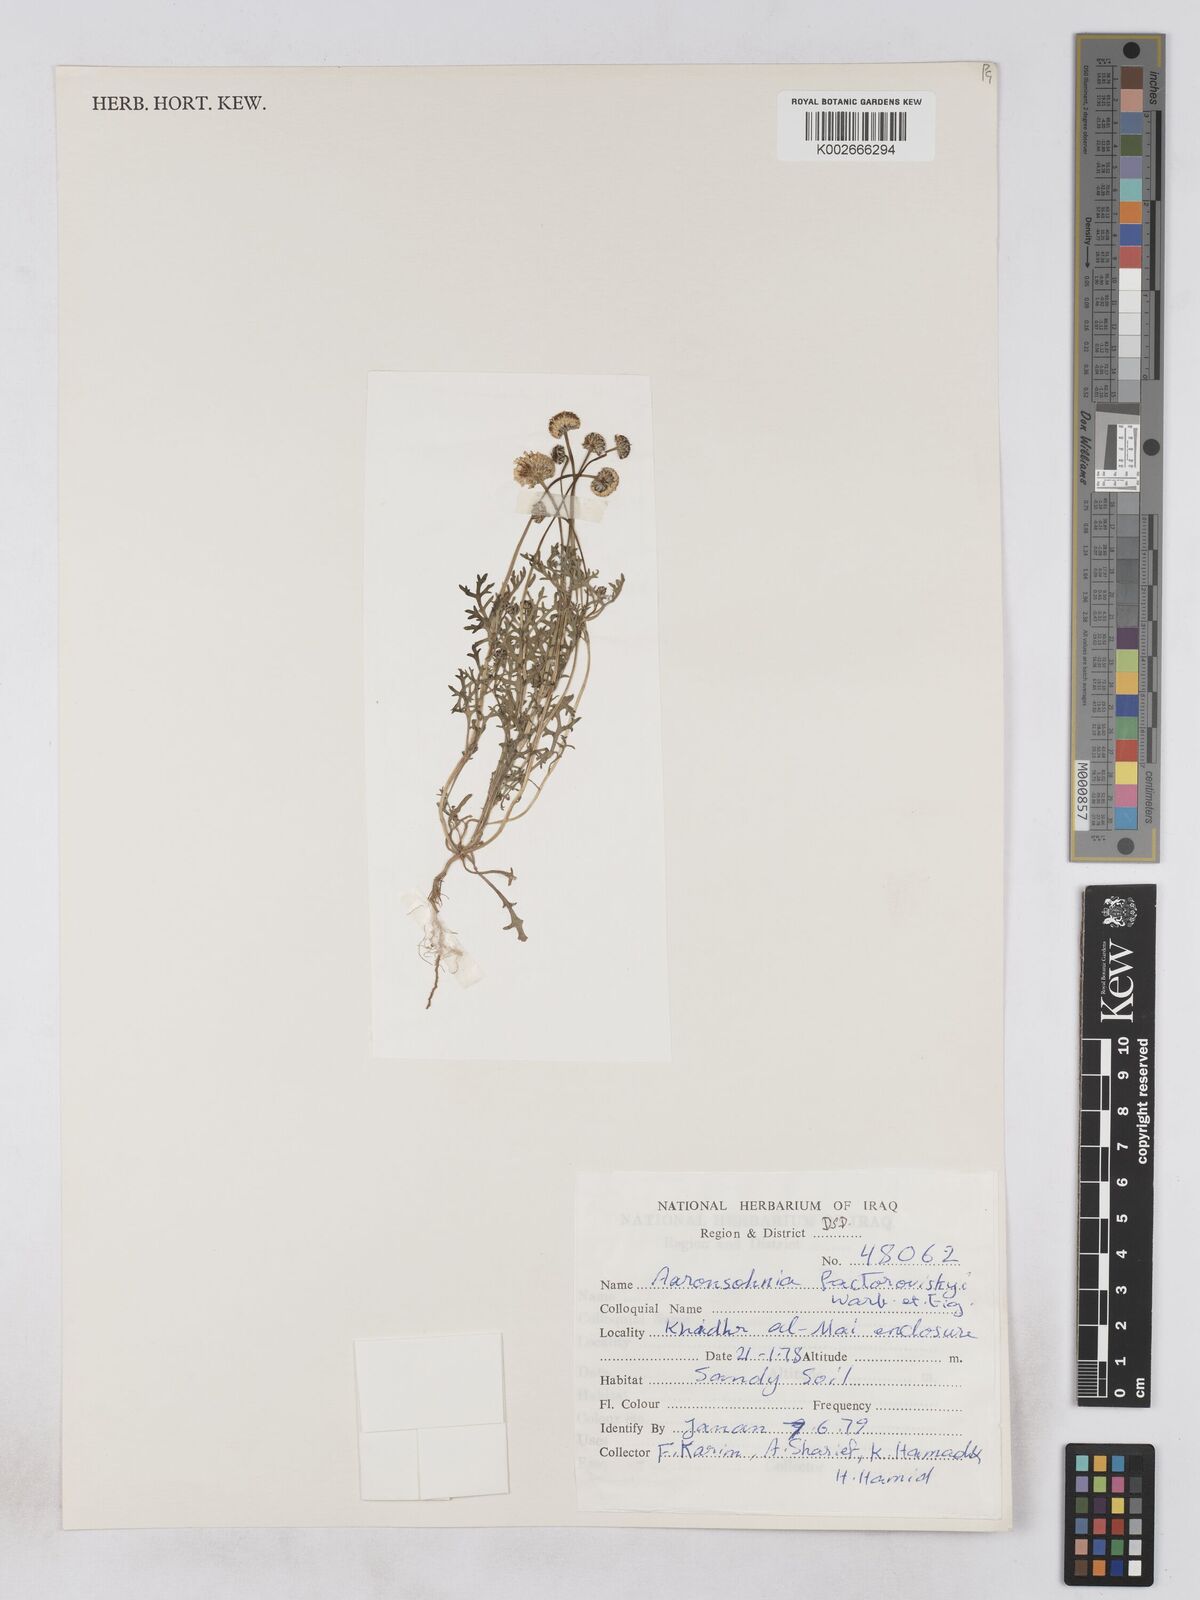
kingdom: Plantae
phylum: Tracheophyta
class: Magnoliopsida
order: Asterales
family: Asteraceae
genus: Otoglyphis
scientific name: Otoglyphis factorovskyi
